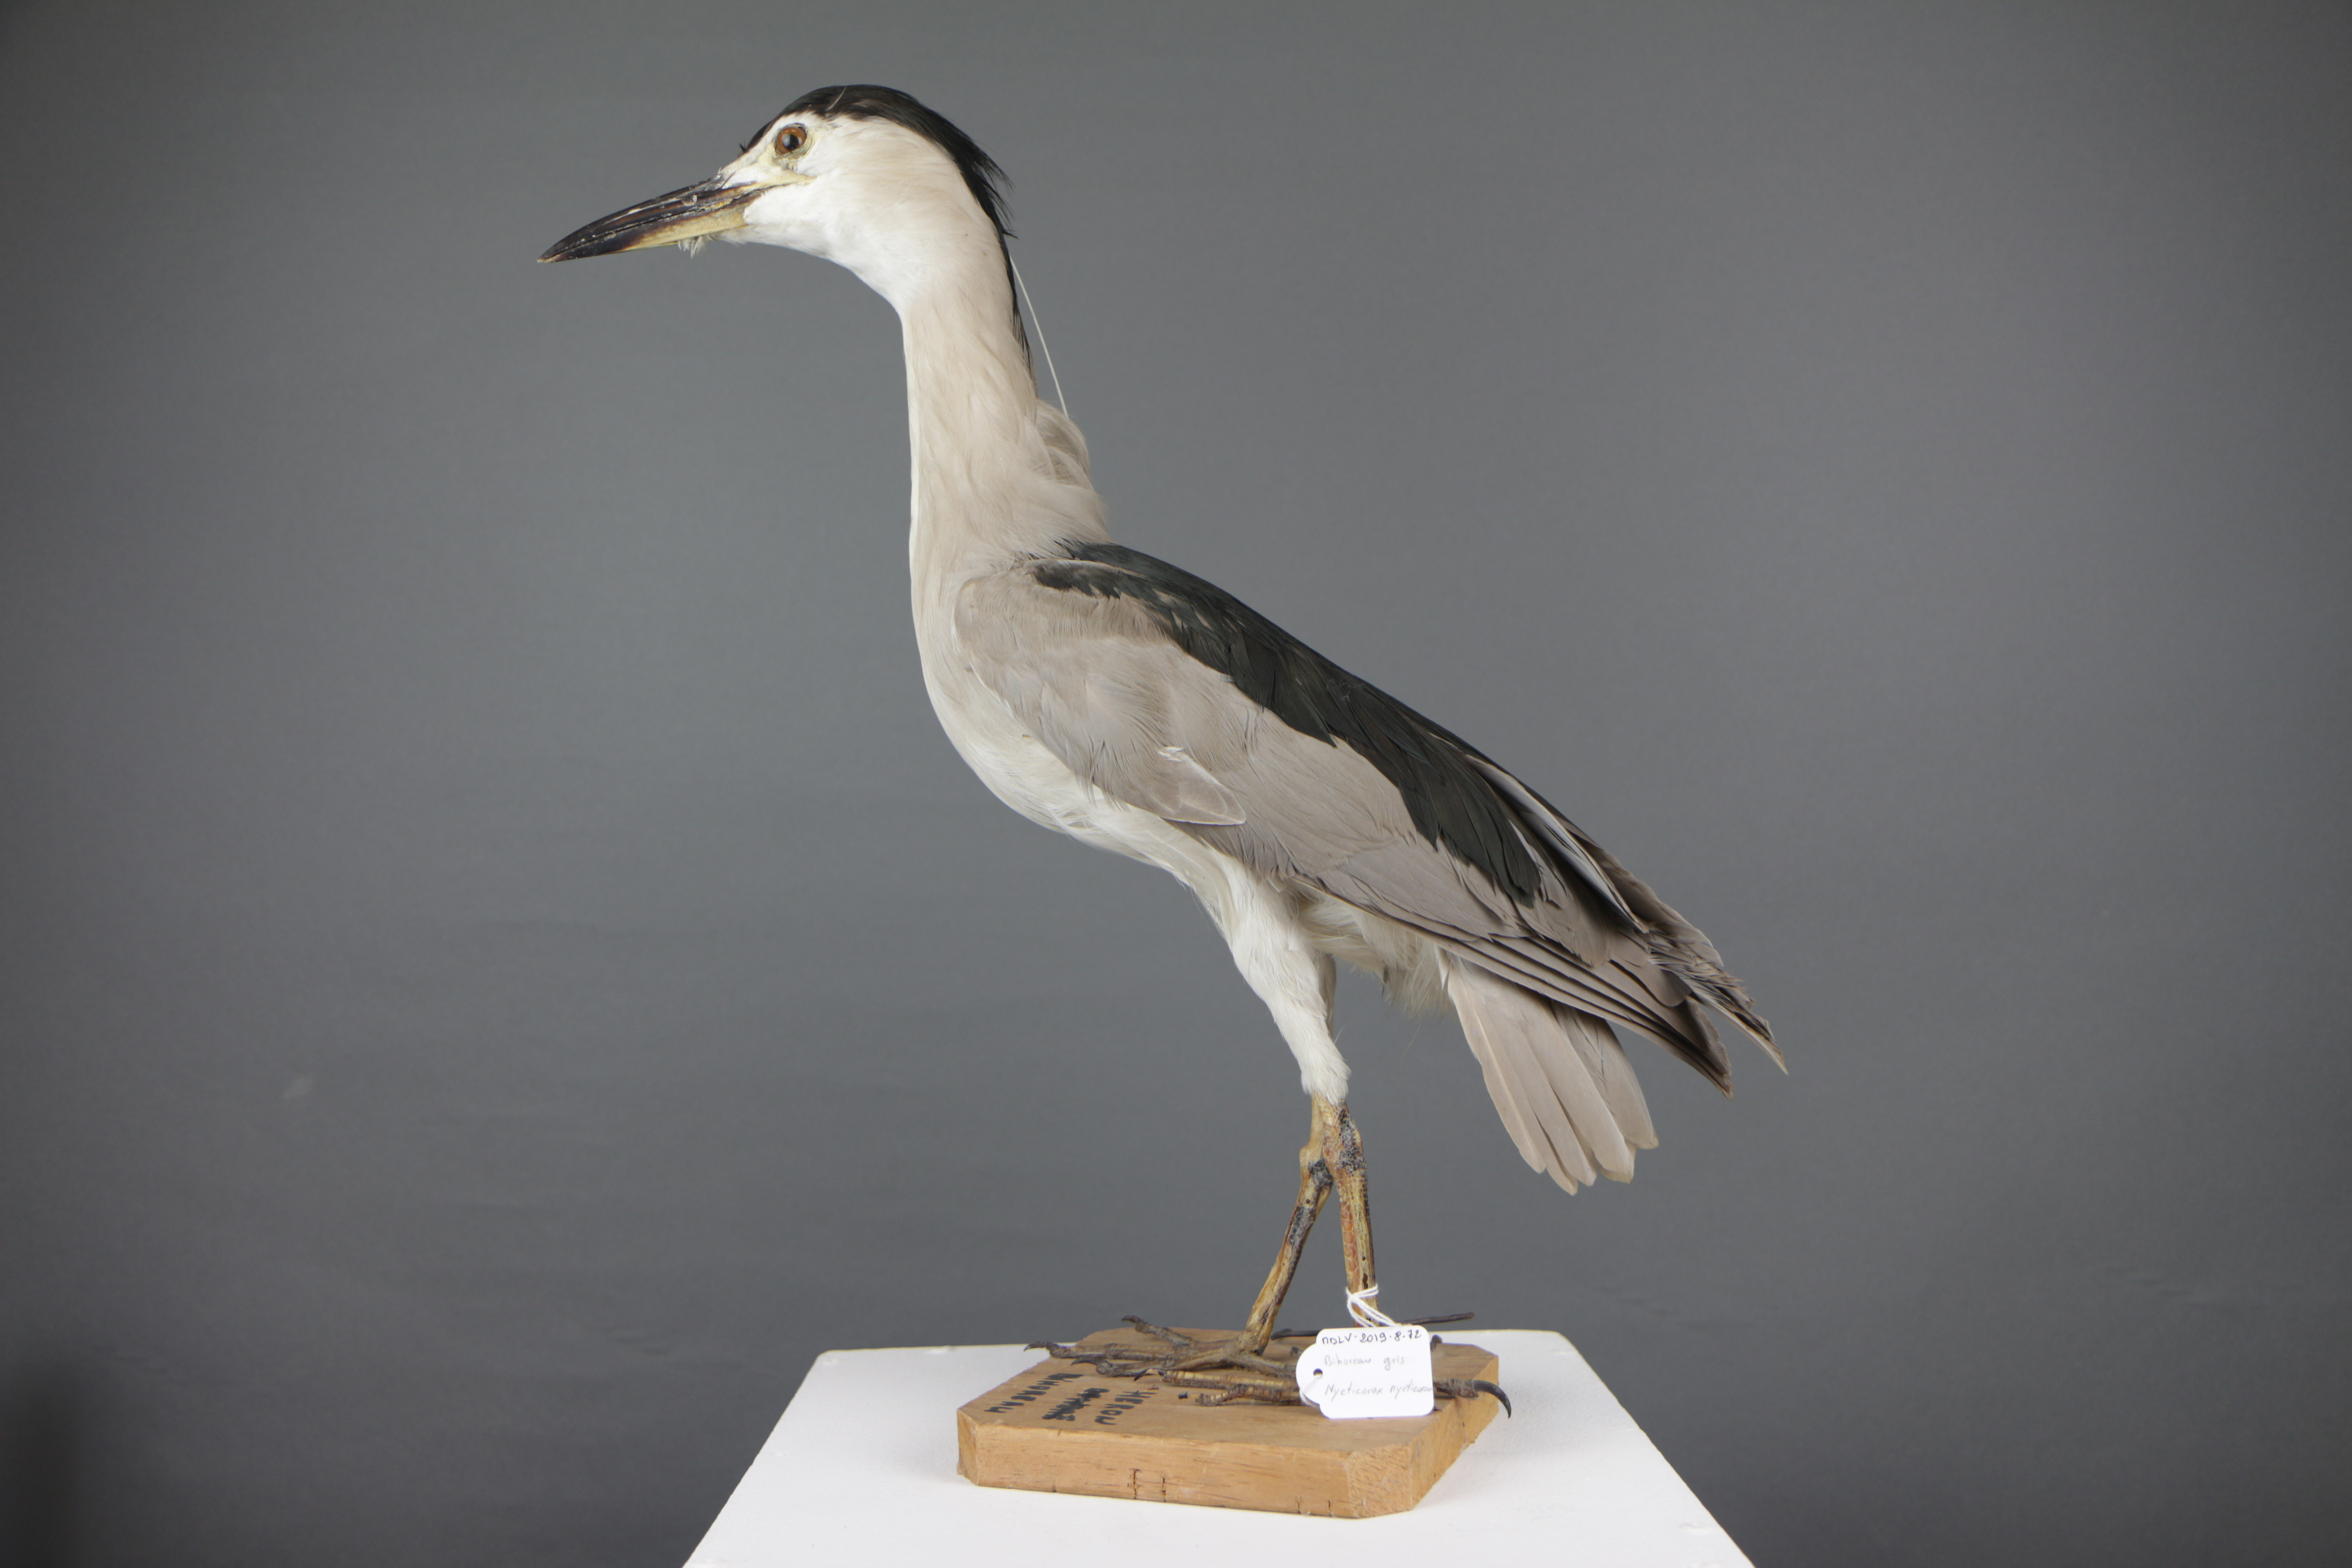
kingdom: Animalia
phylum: Chordata
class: Aves
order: Pelecaniformes
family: Ardeidae
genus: Nycticorax
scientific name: Nycticorax nycticorax
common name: Black-crowned night heron
